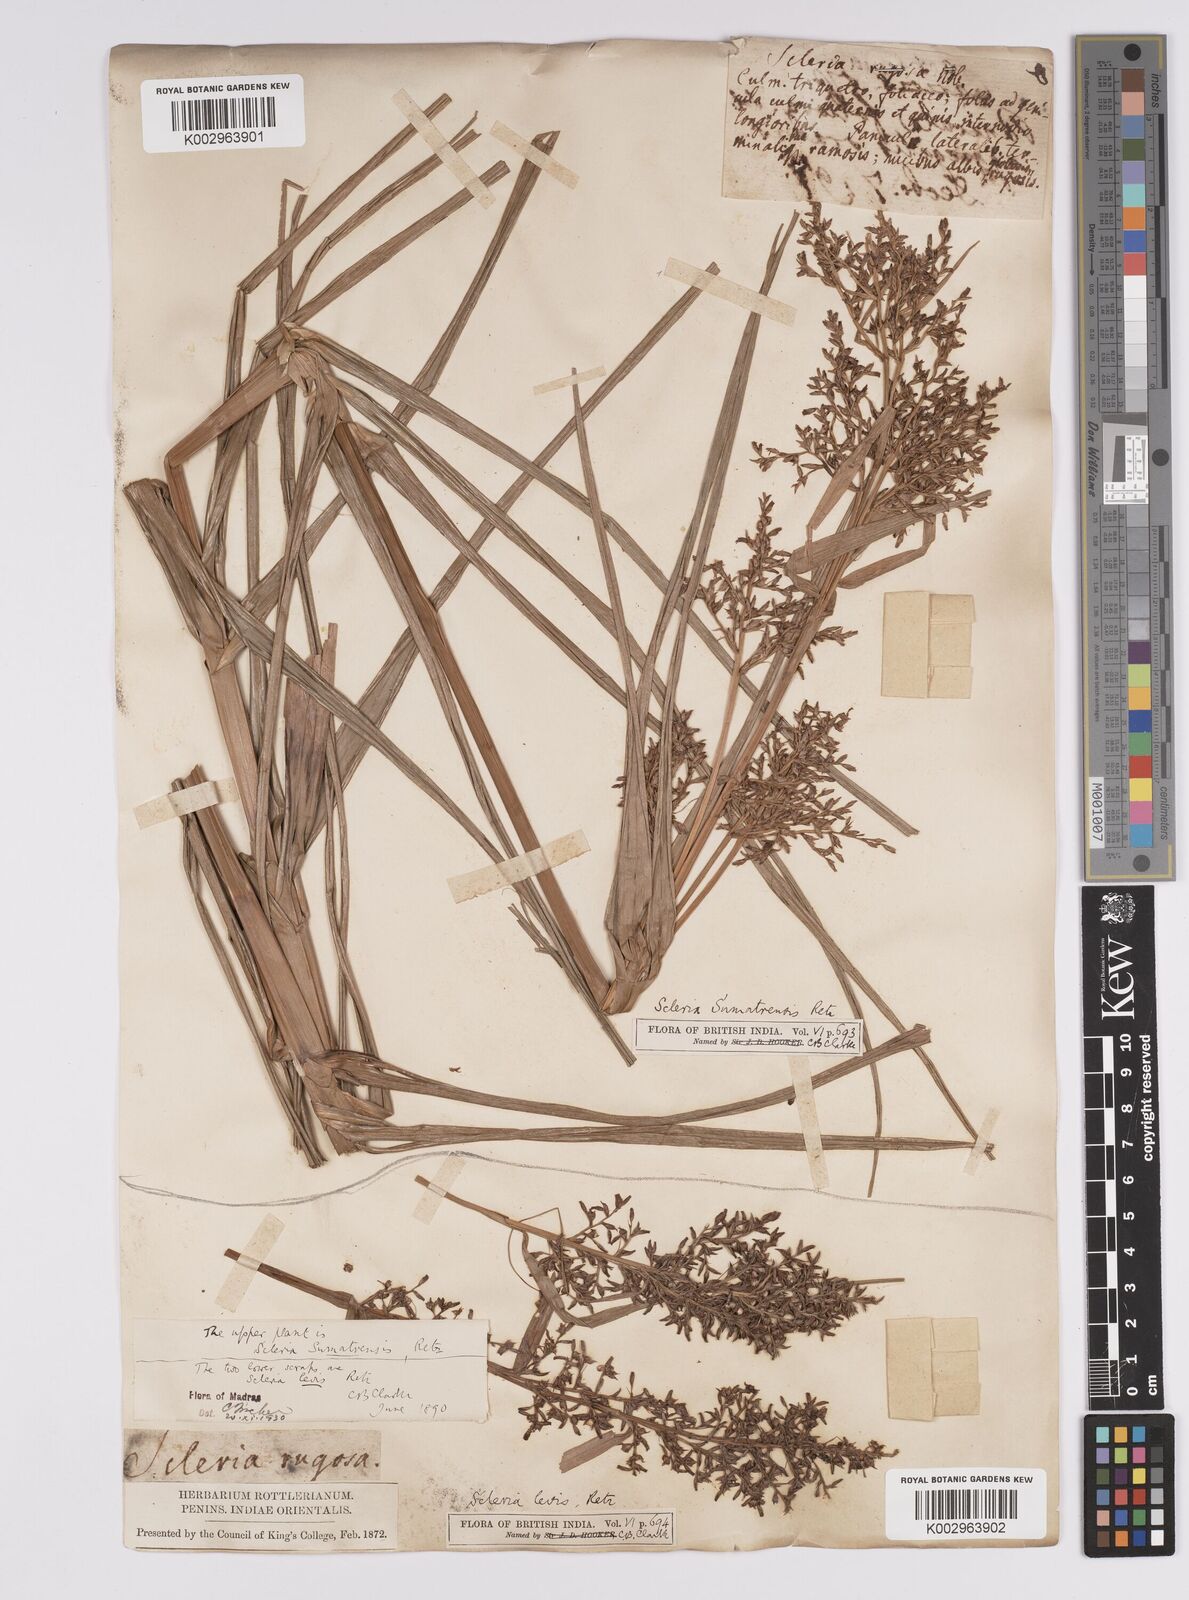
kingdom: Plantae
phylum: Tracheophyta
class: Liliopsida
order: Poales
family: Cyperaceae
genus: Scleria
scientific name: Scleria sumatrensis
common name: Sumatran scleria
